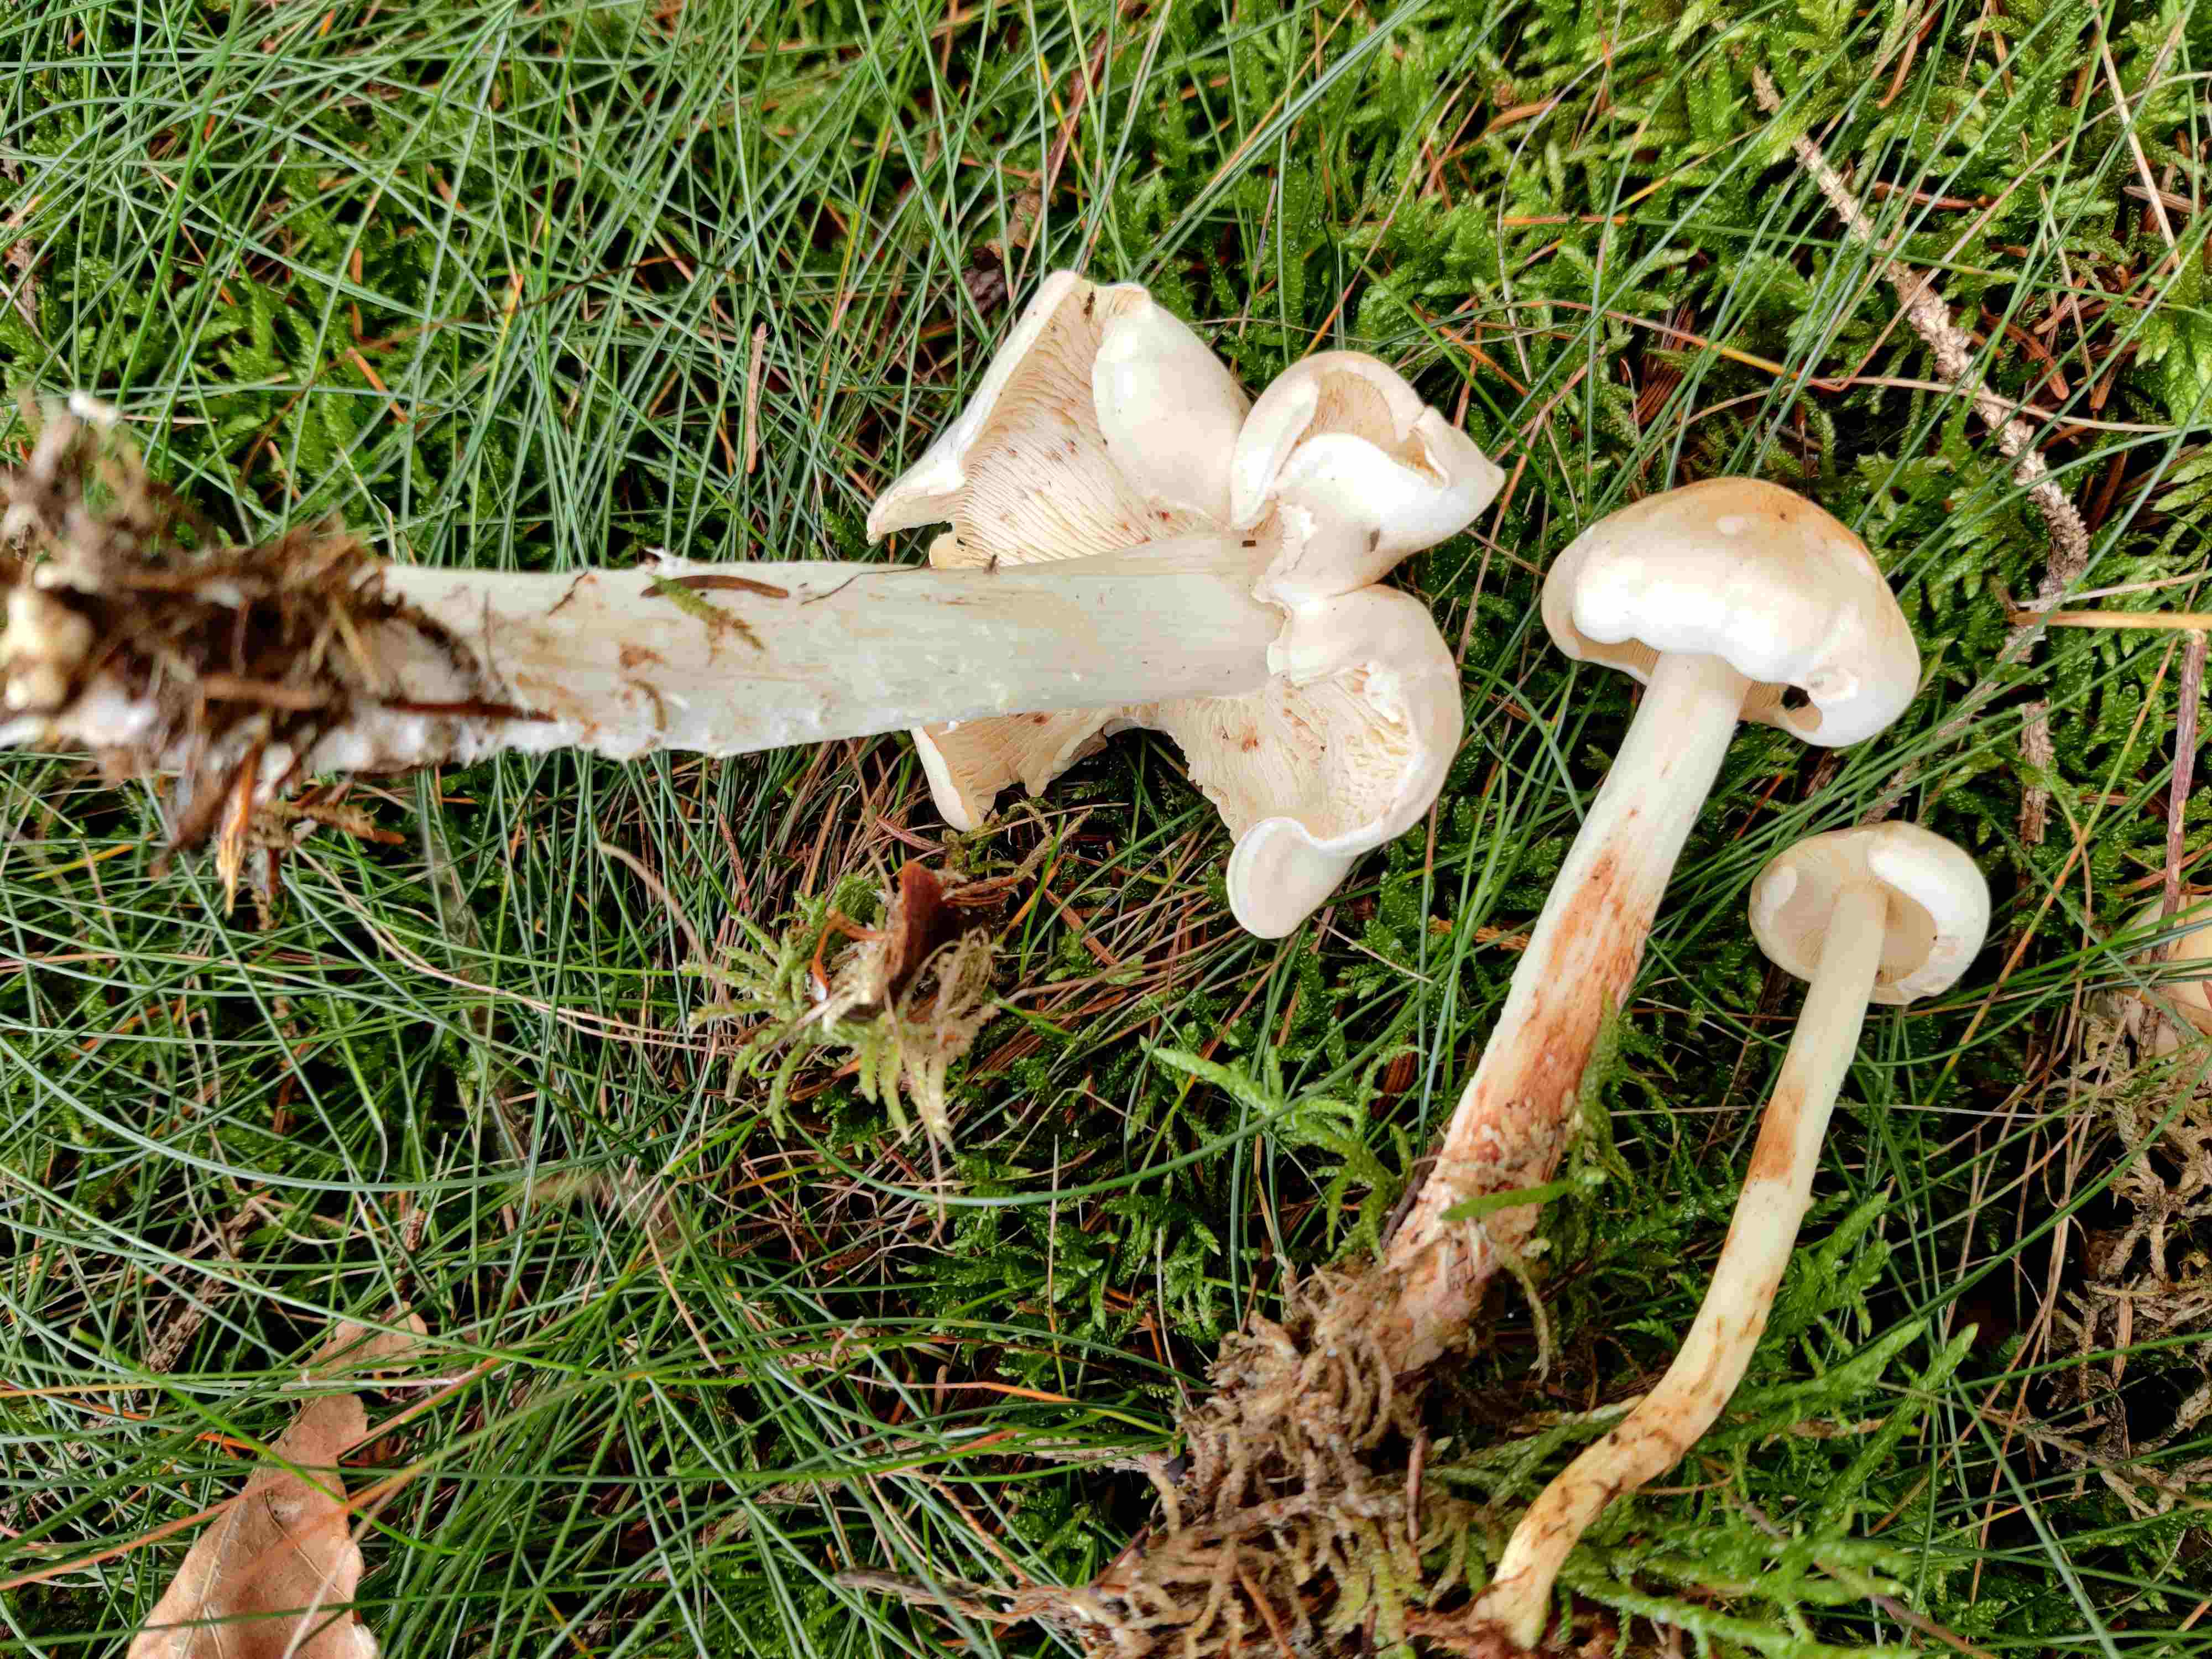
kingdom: Fungi
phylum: Basidiomycota
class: Agaricomycetes
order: Agaricales
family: Omphalotaceae
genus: Rhodocollybia
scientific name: Rhodocollybia maculata
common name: plettet fladhat
